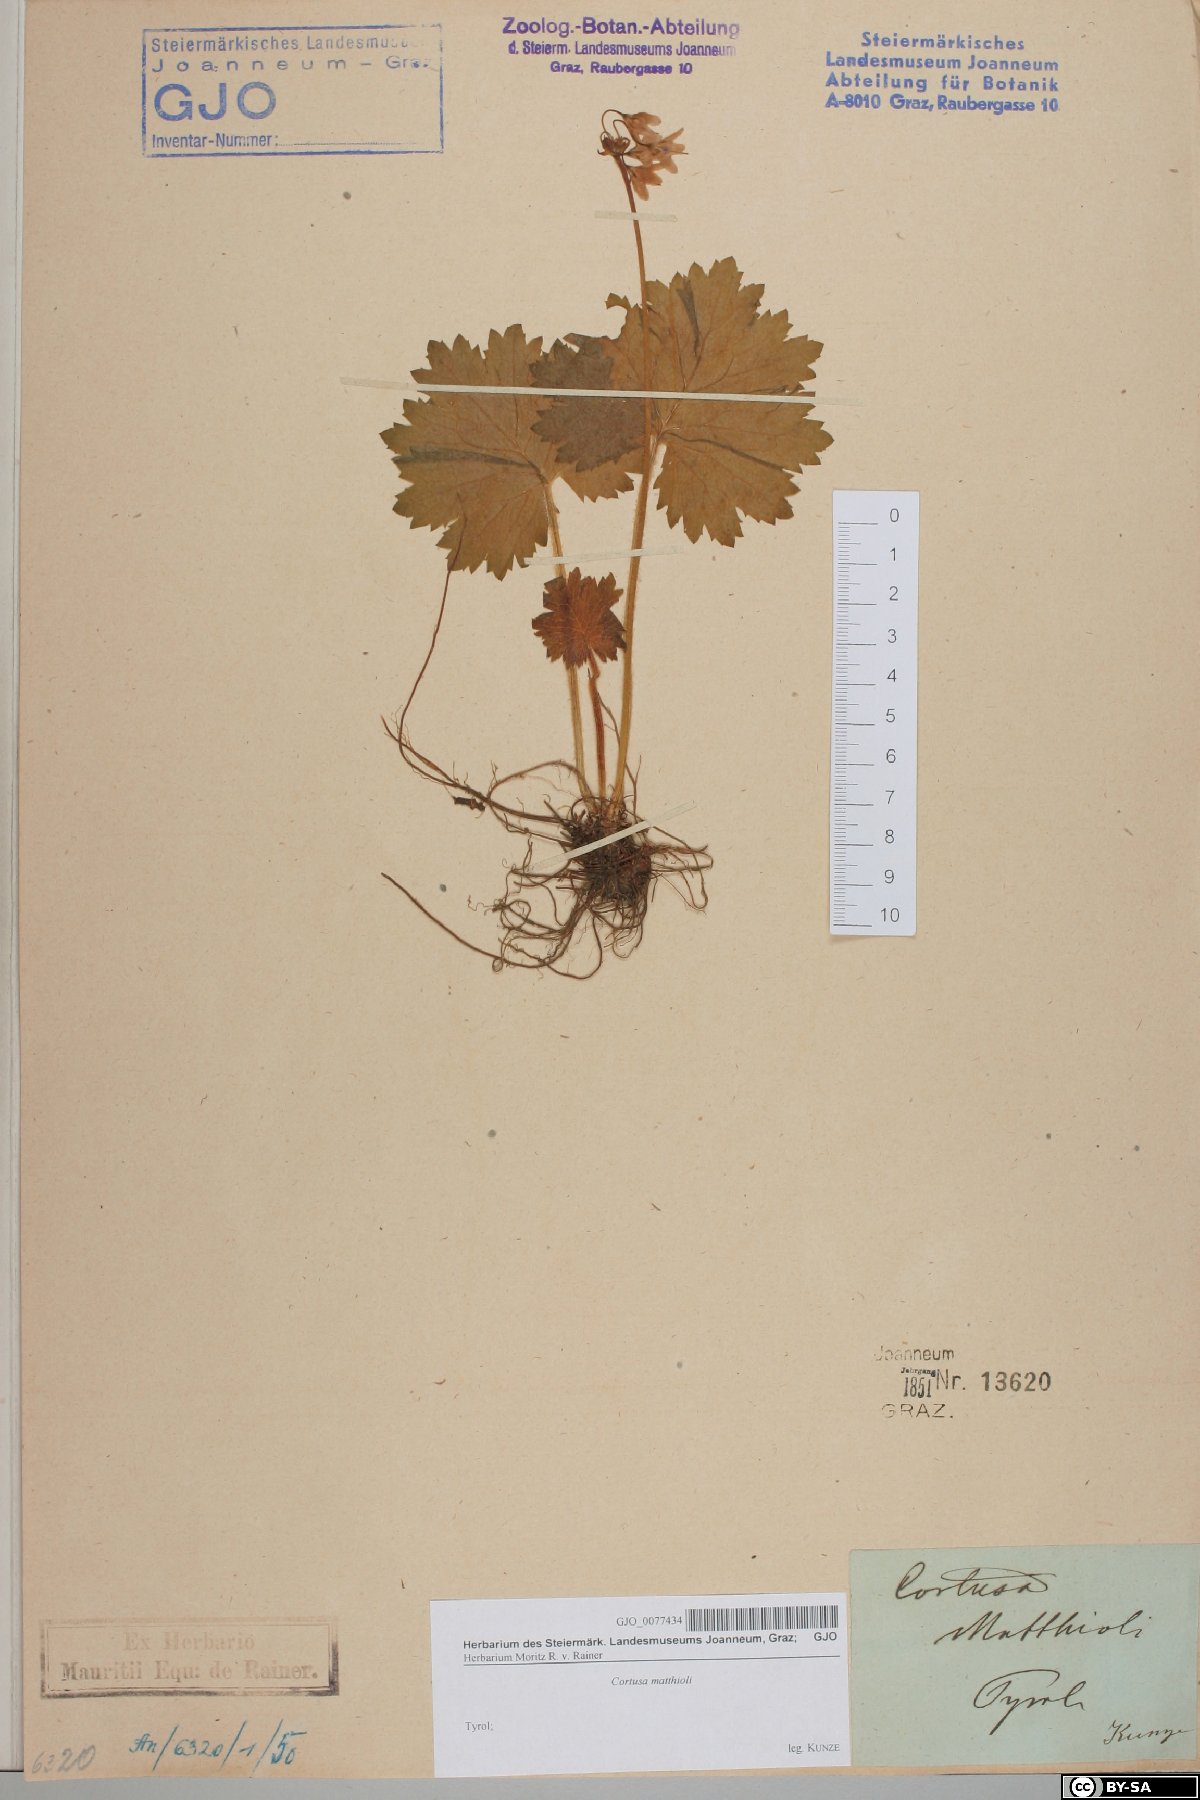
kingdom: Plantae
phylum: Tracheophyta
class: Magnoliopsida
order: Ericales
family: Primulaceae
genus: Primula
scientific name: Primula matthioli
